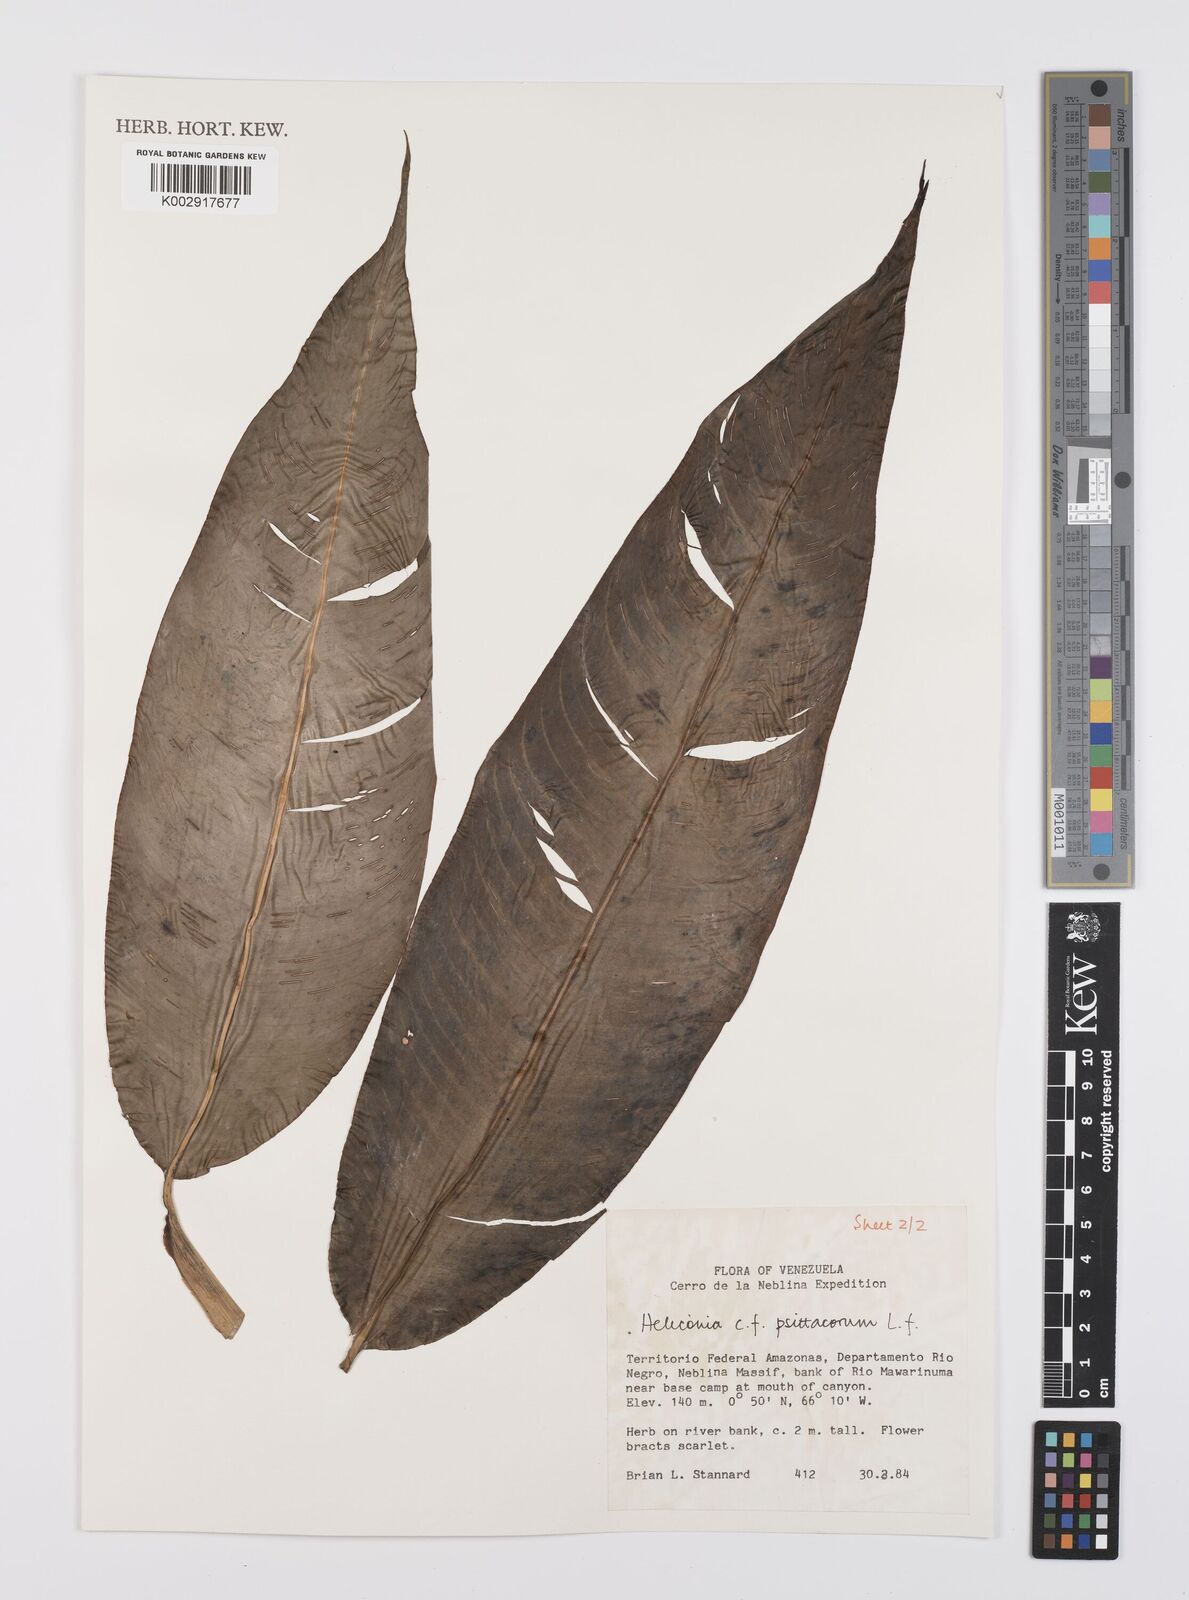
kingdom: Plantae
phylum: Tracheophyta
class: Liliopsida
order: Zingiberales
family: Heliconiaceae
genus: Heliconia
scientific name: Heliconia psittacorum
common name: Parrot's-flower
